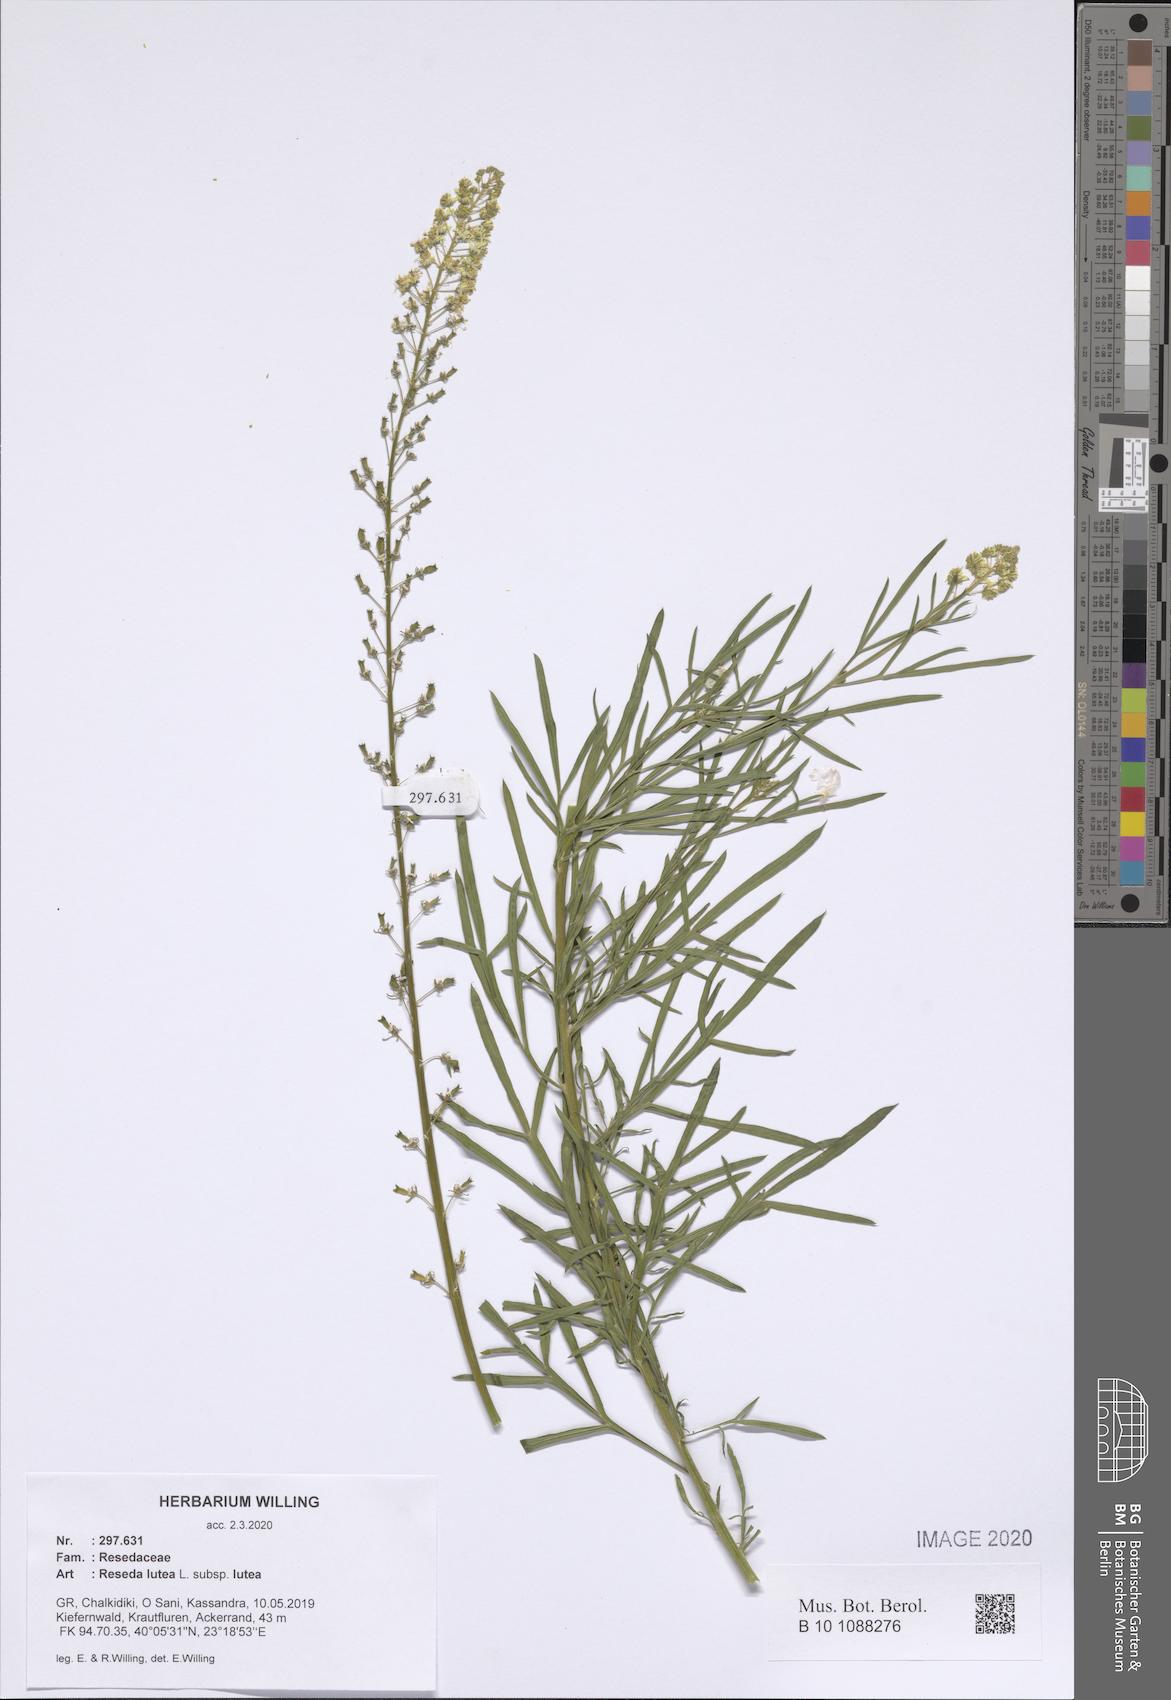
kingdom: Plantae
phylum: Tracheophyta
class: Magnoliopsida
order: Brassicales
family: Resedaceae
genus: Reseda
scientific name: Reseda lutea
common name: Wild mignonette
